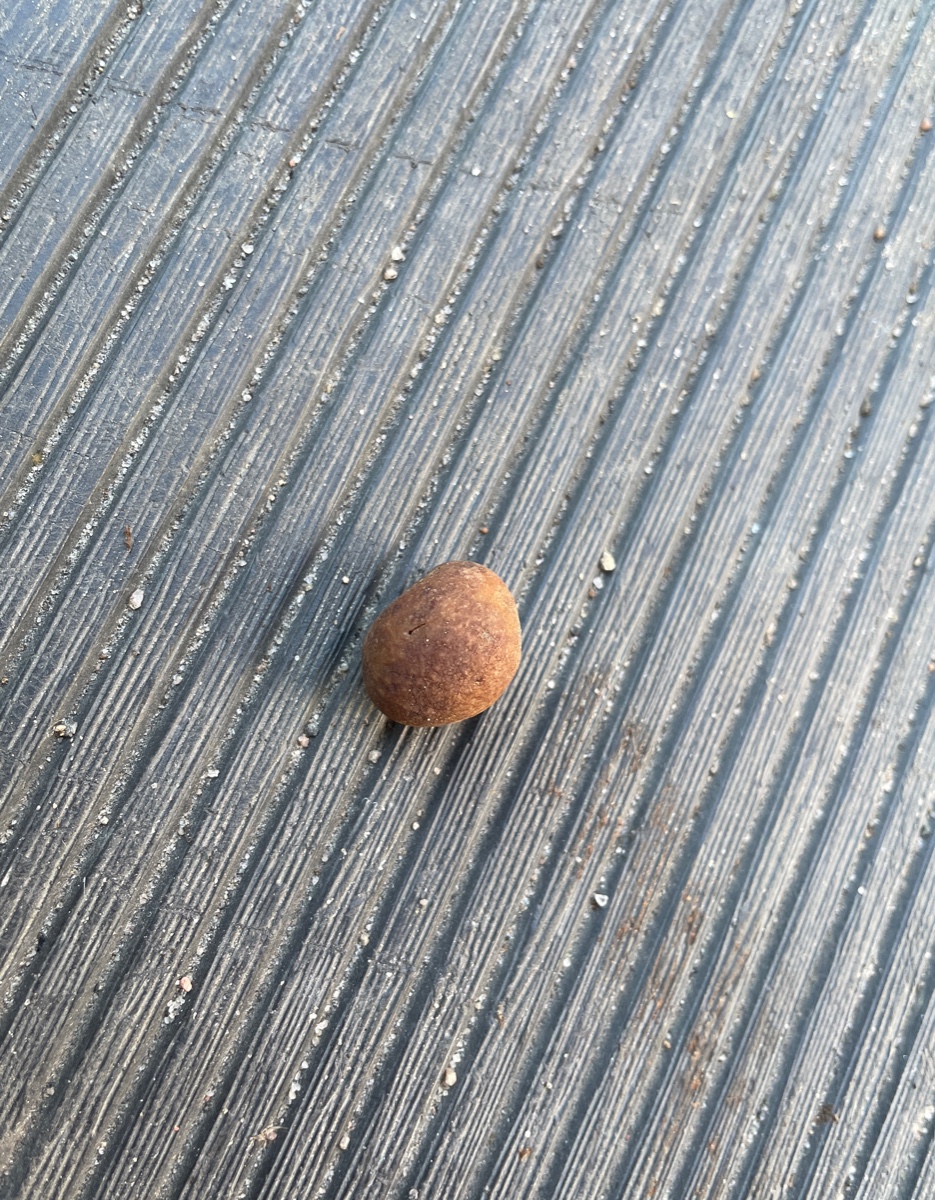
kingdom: Fungi
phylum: Ascomycota
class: Pezizomycetes
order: Pezizales
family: Tuberaceae
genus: Tuber
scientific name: Tuber rufum
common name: rødbrun trøffel
